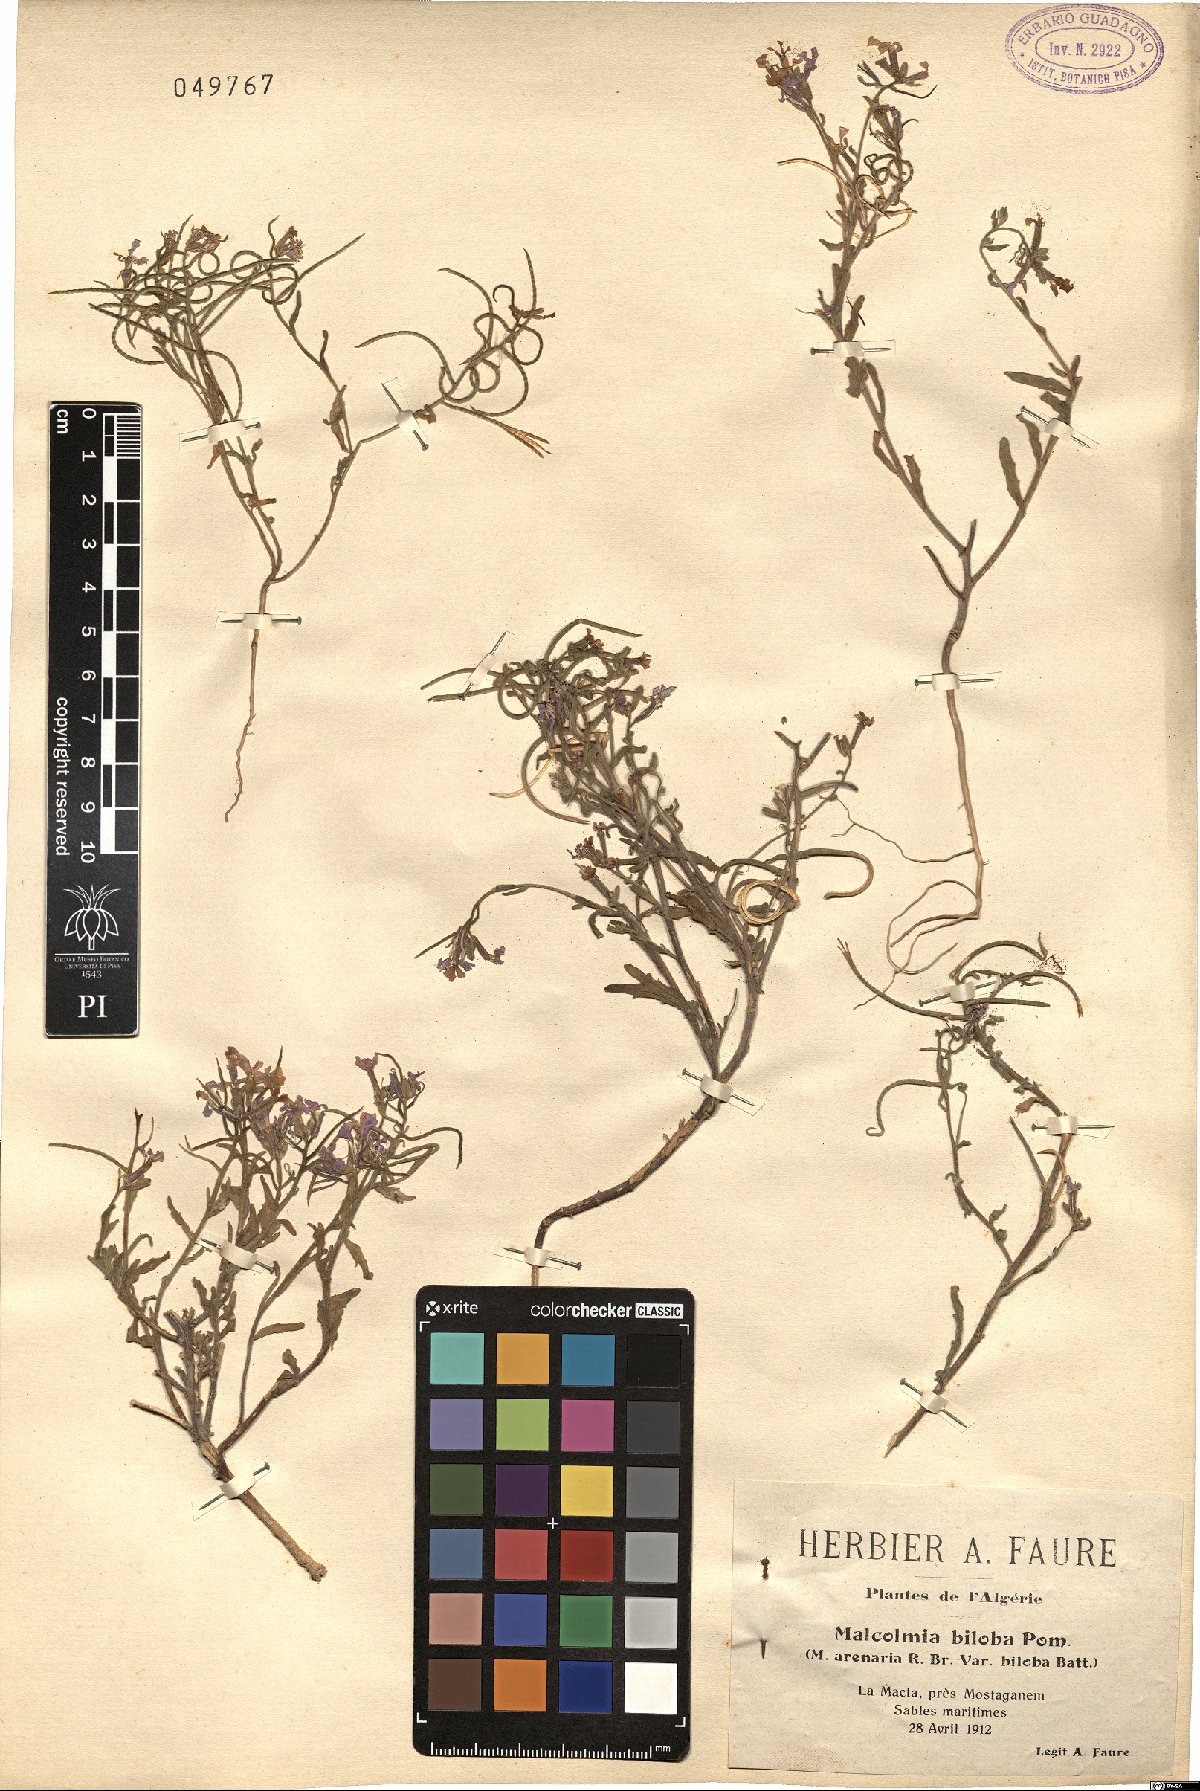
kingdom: Plantae
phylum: Tracheophyta
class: Magnoliopsida
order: Brassicales
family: Brassicaceae
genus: Marcuskochia
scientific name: Marcuskochia arenaria
